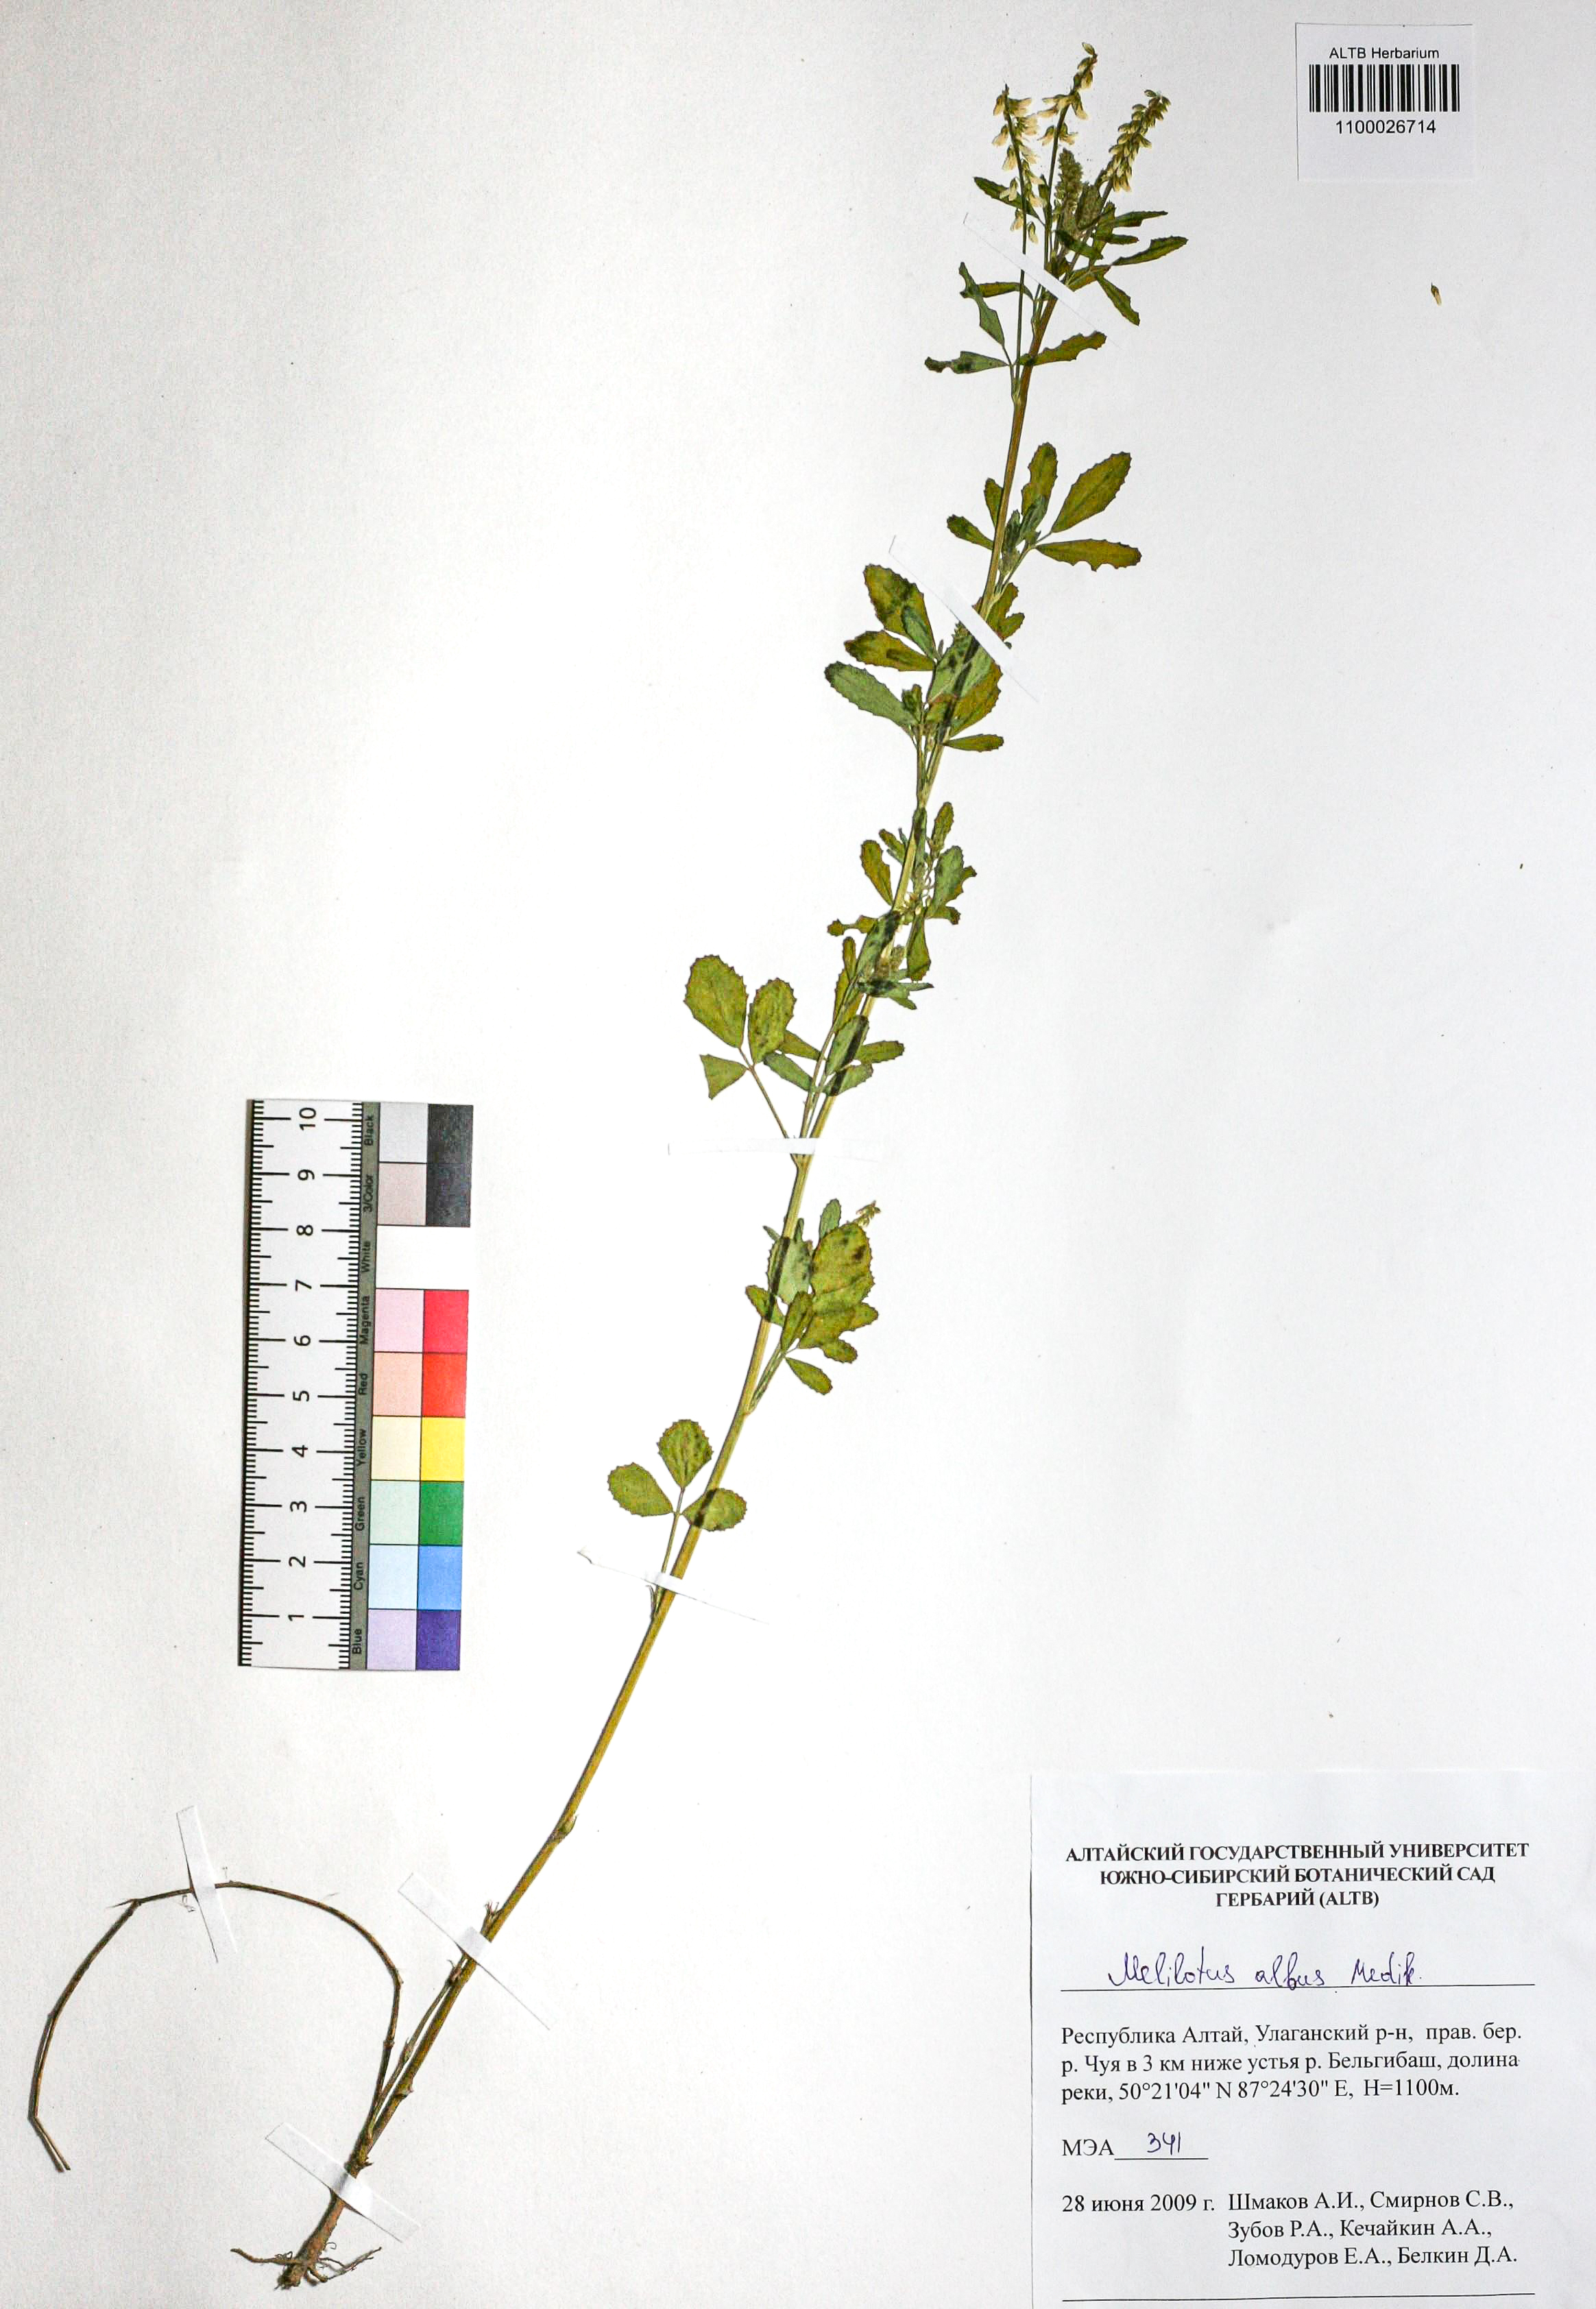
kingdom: Plantae
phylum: Tracheophyta
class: Magnoliopsida
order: Fabales
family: Fabaceae
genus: Melilotus
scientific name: Melilotus albus
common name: White melilot
